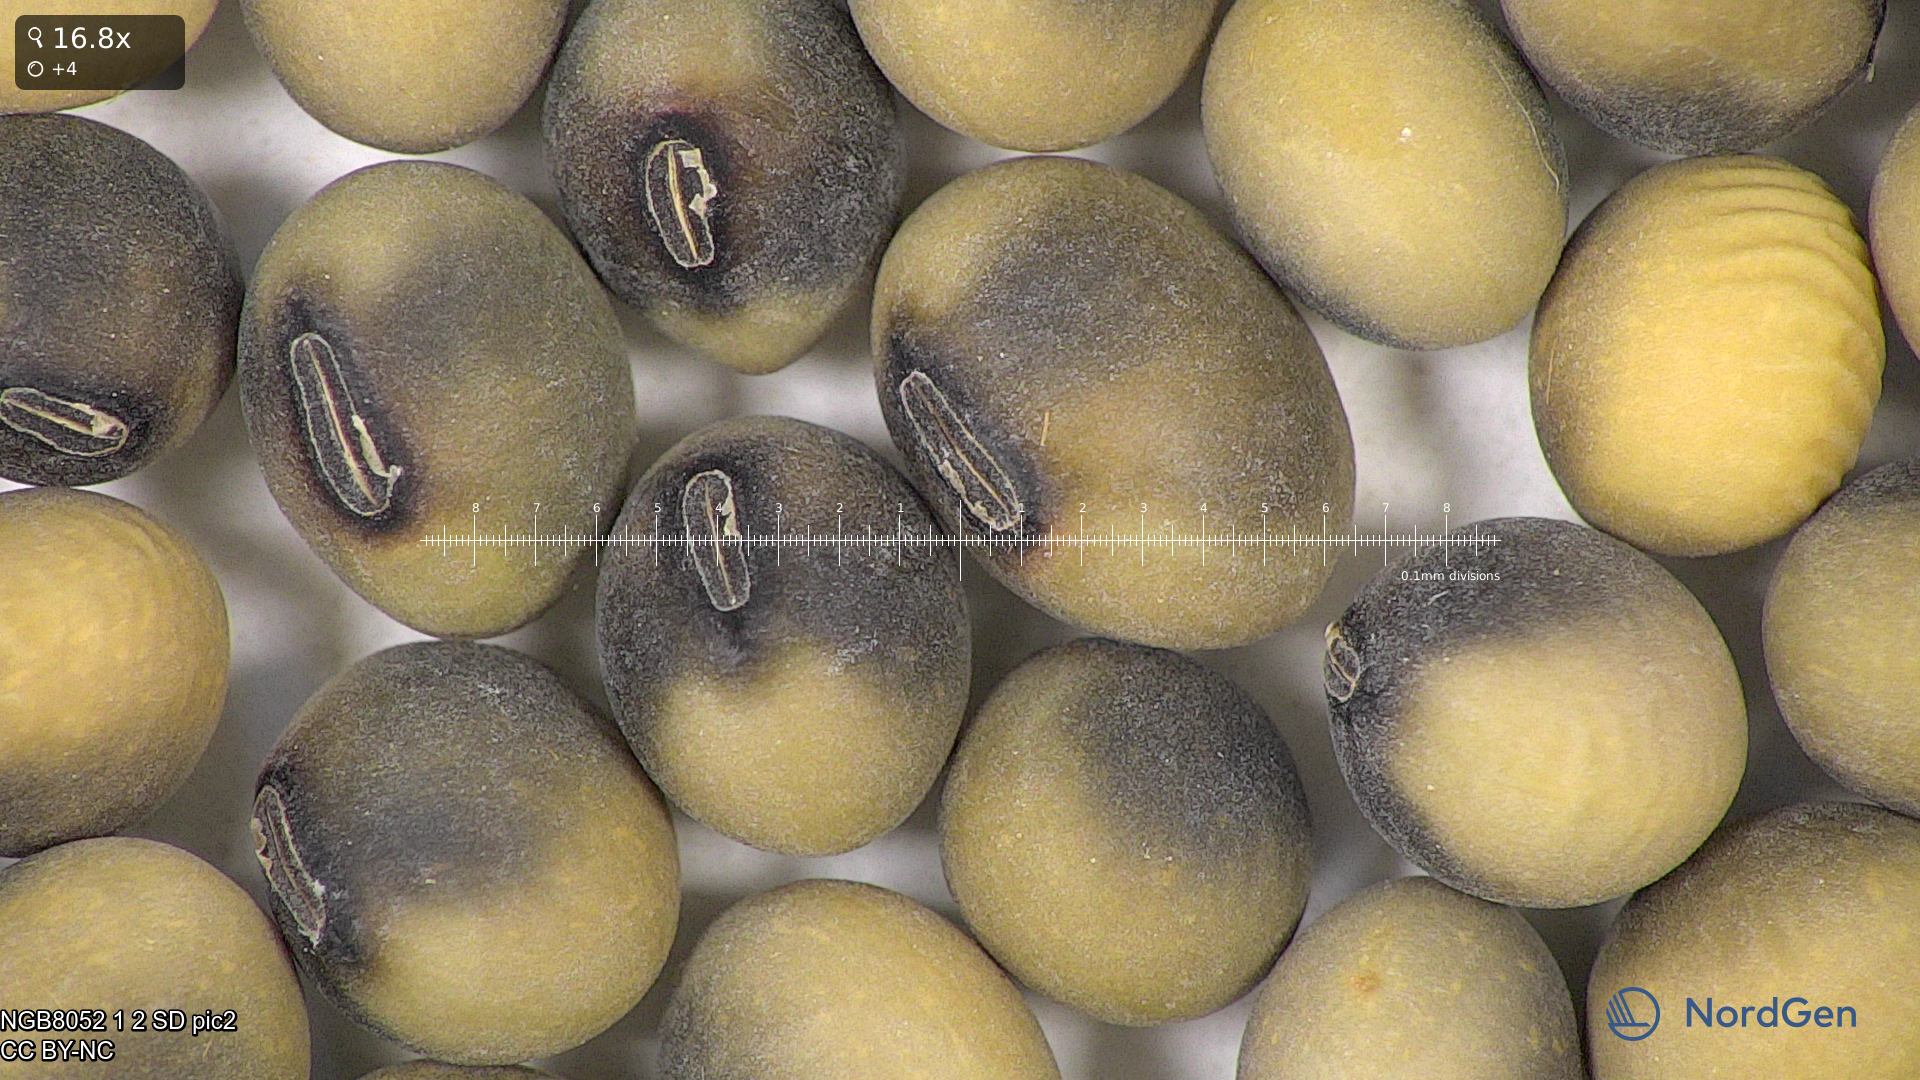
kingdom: Plantae
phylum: Tracheophyta
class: Magnoliopsida
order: Fabales
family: Fabaceae
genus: Glycine
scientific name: Glycine max
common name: Soya-bean
